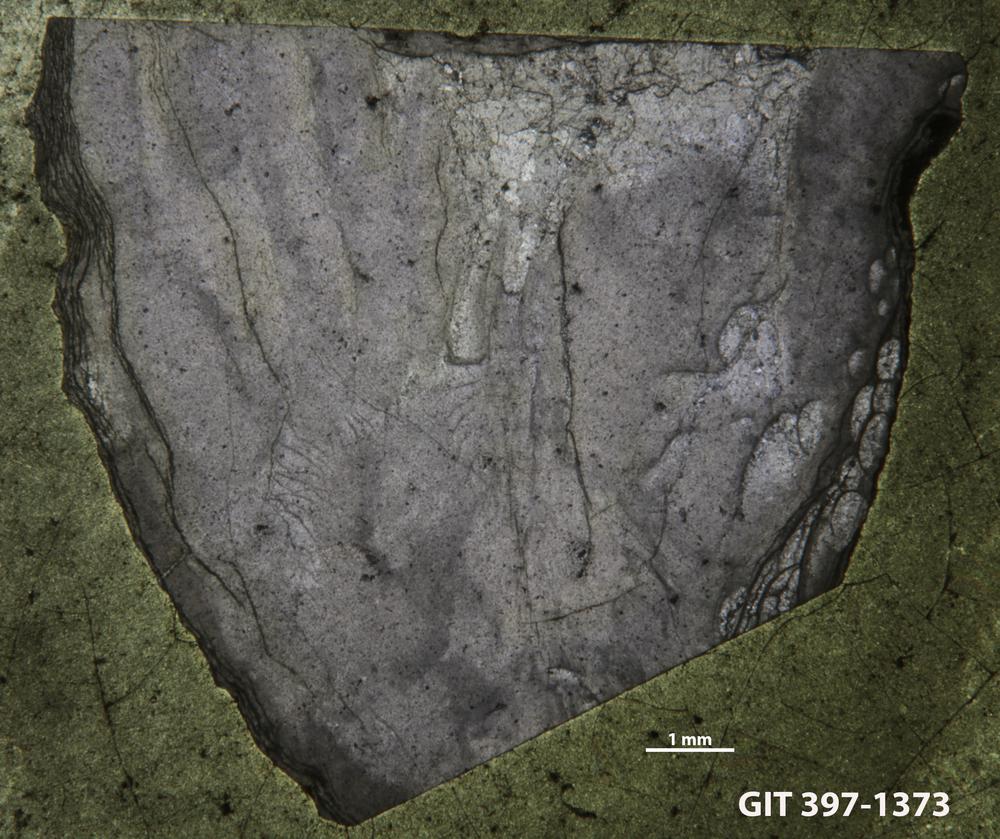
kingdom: Animalia
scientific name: Animalia
